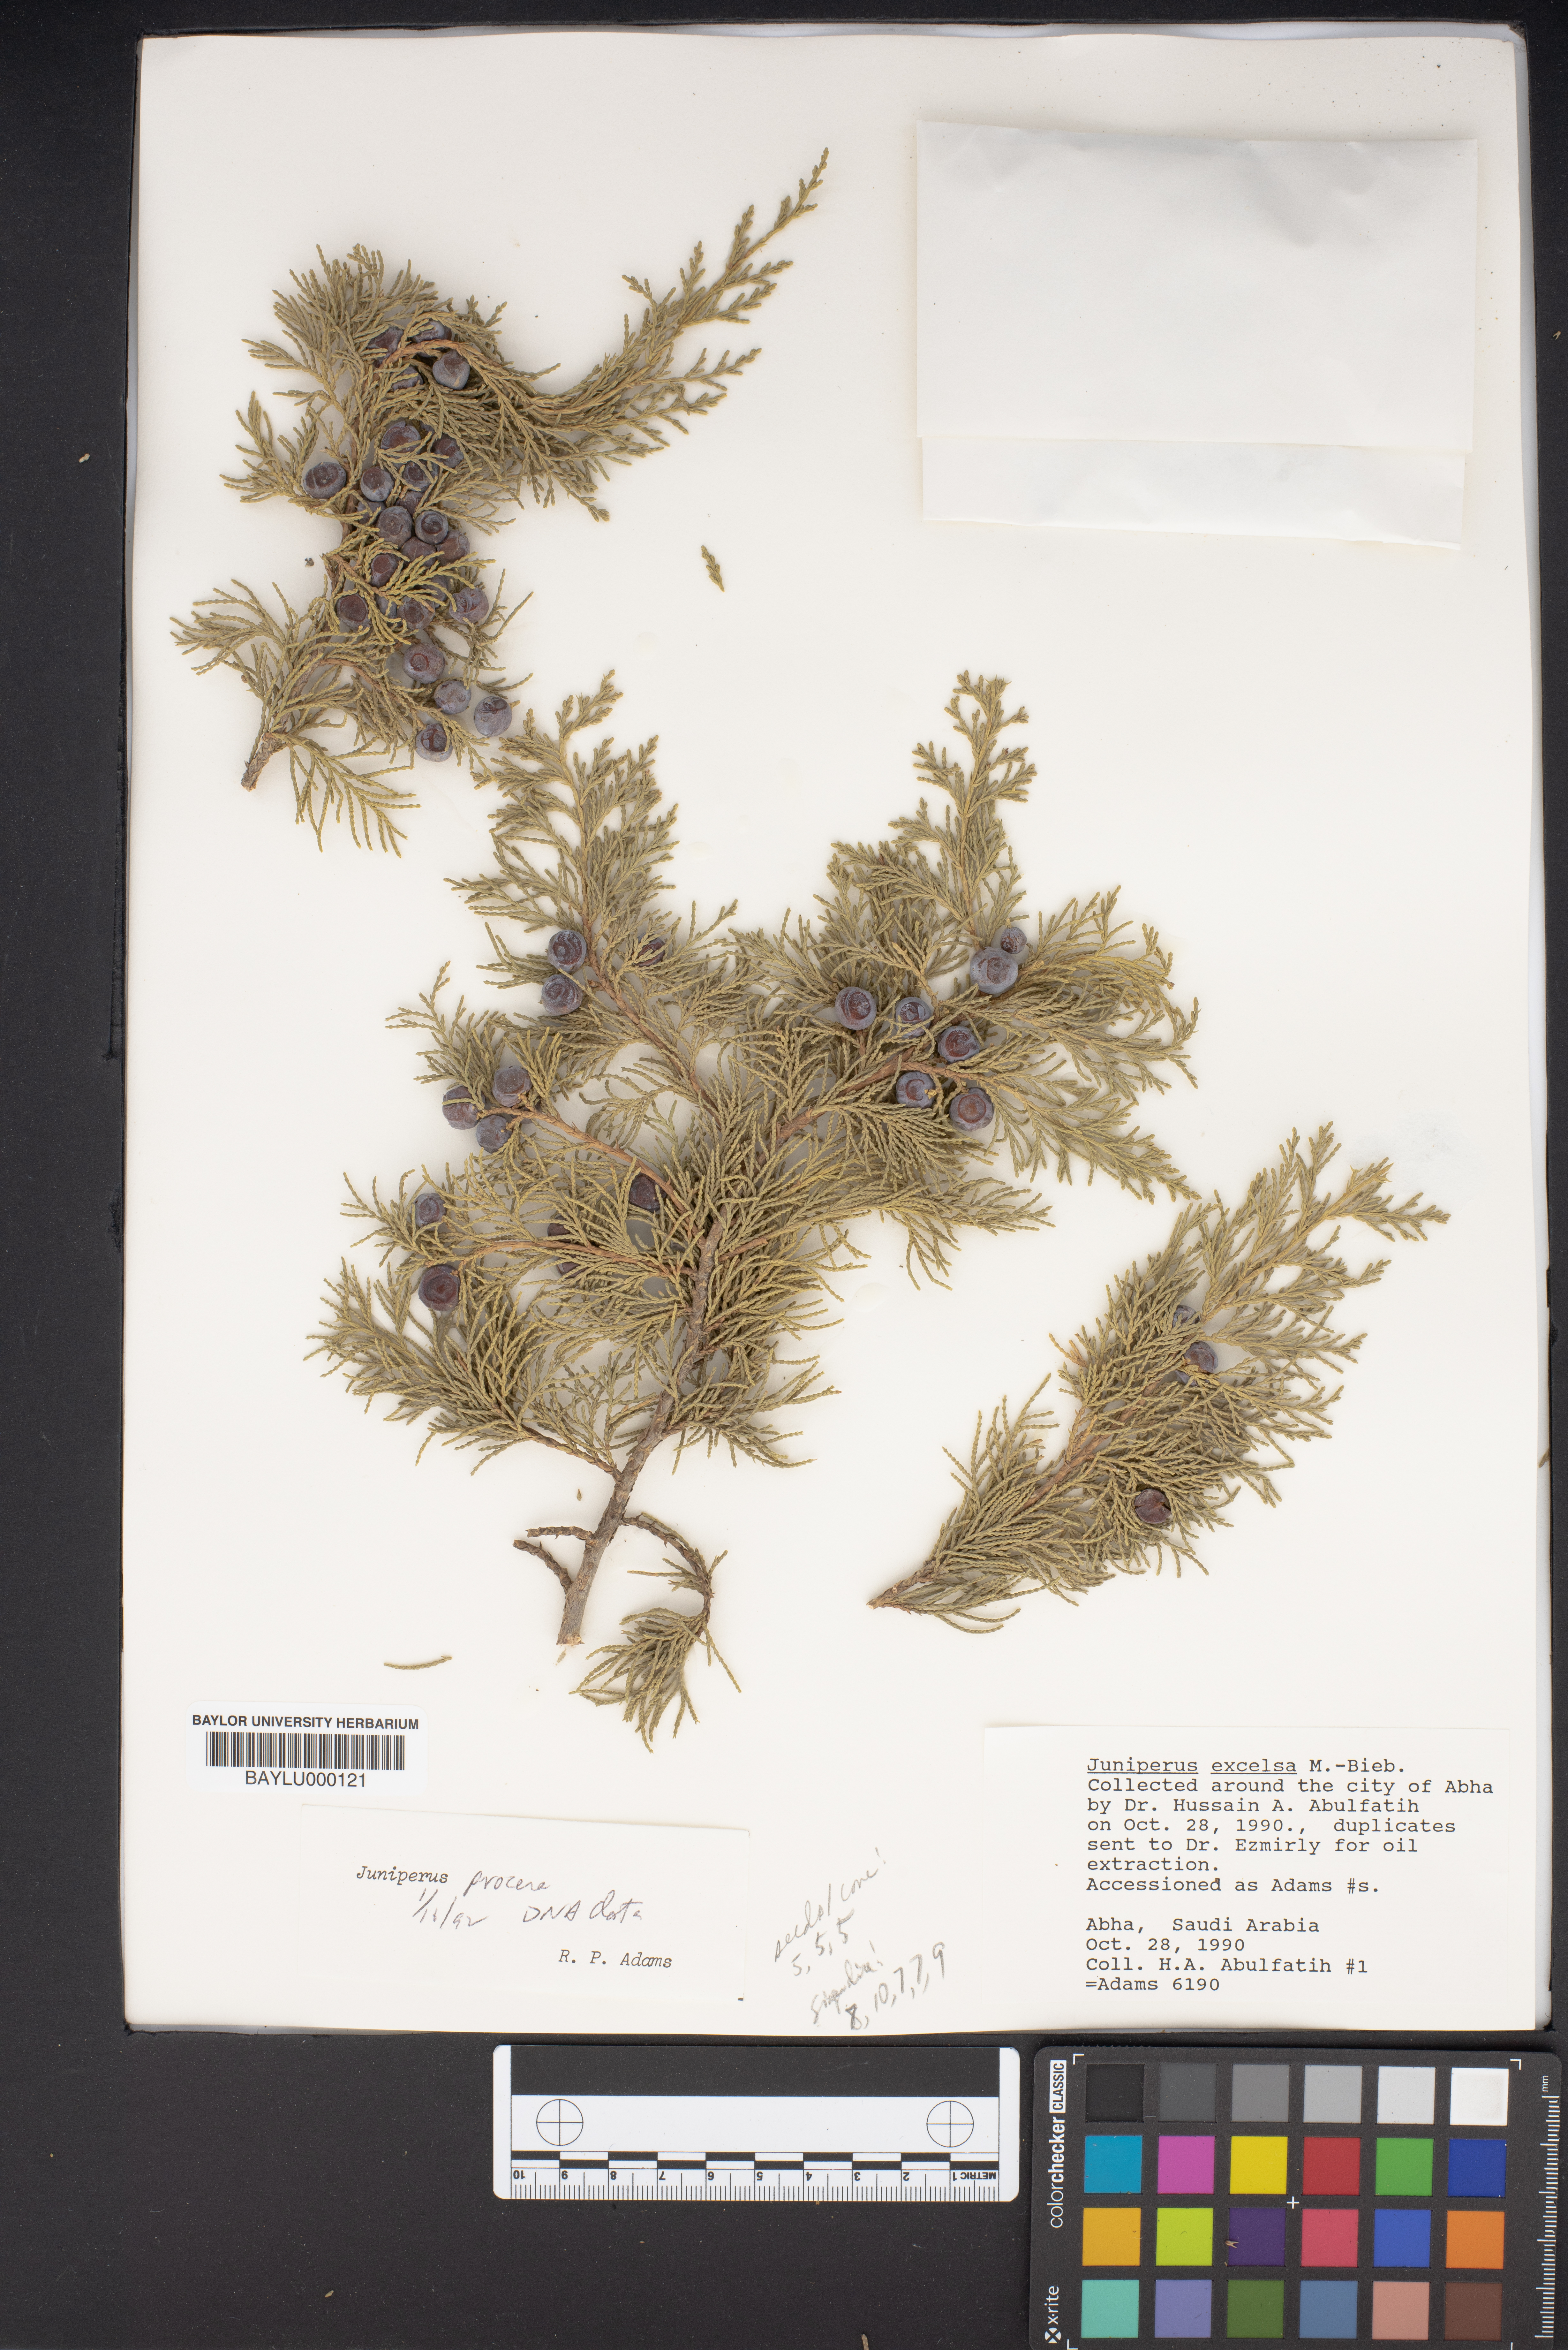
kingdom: Plantae
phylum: Tracheophyta
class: Pinopsida
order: Pinales
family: Cupressaceae
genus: Juniperus
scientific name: Juniperus procera
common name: African juniper
